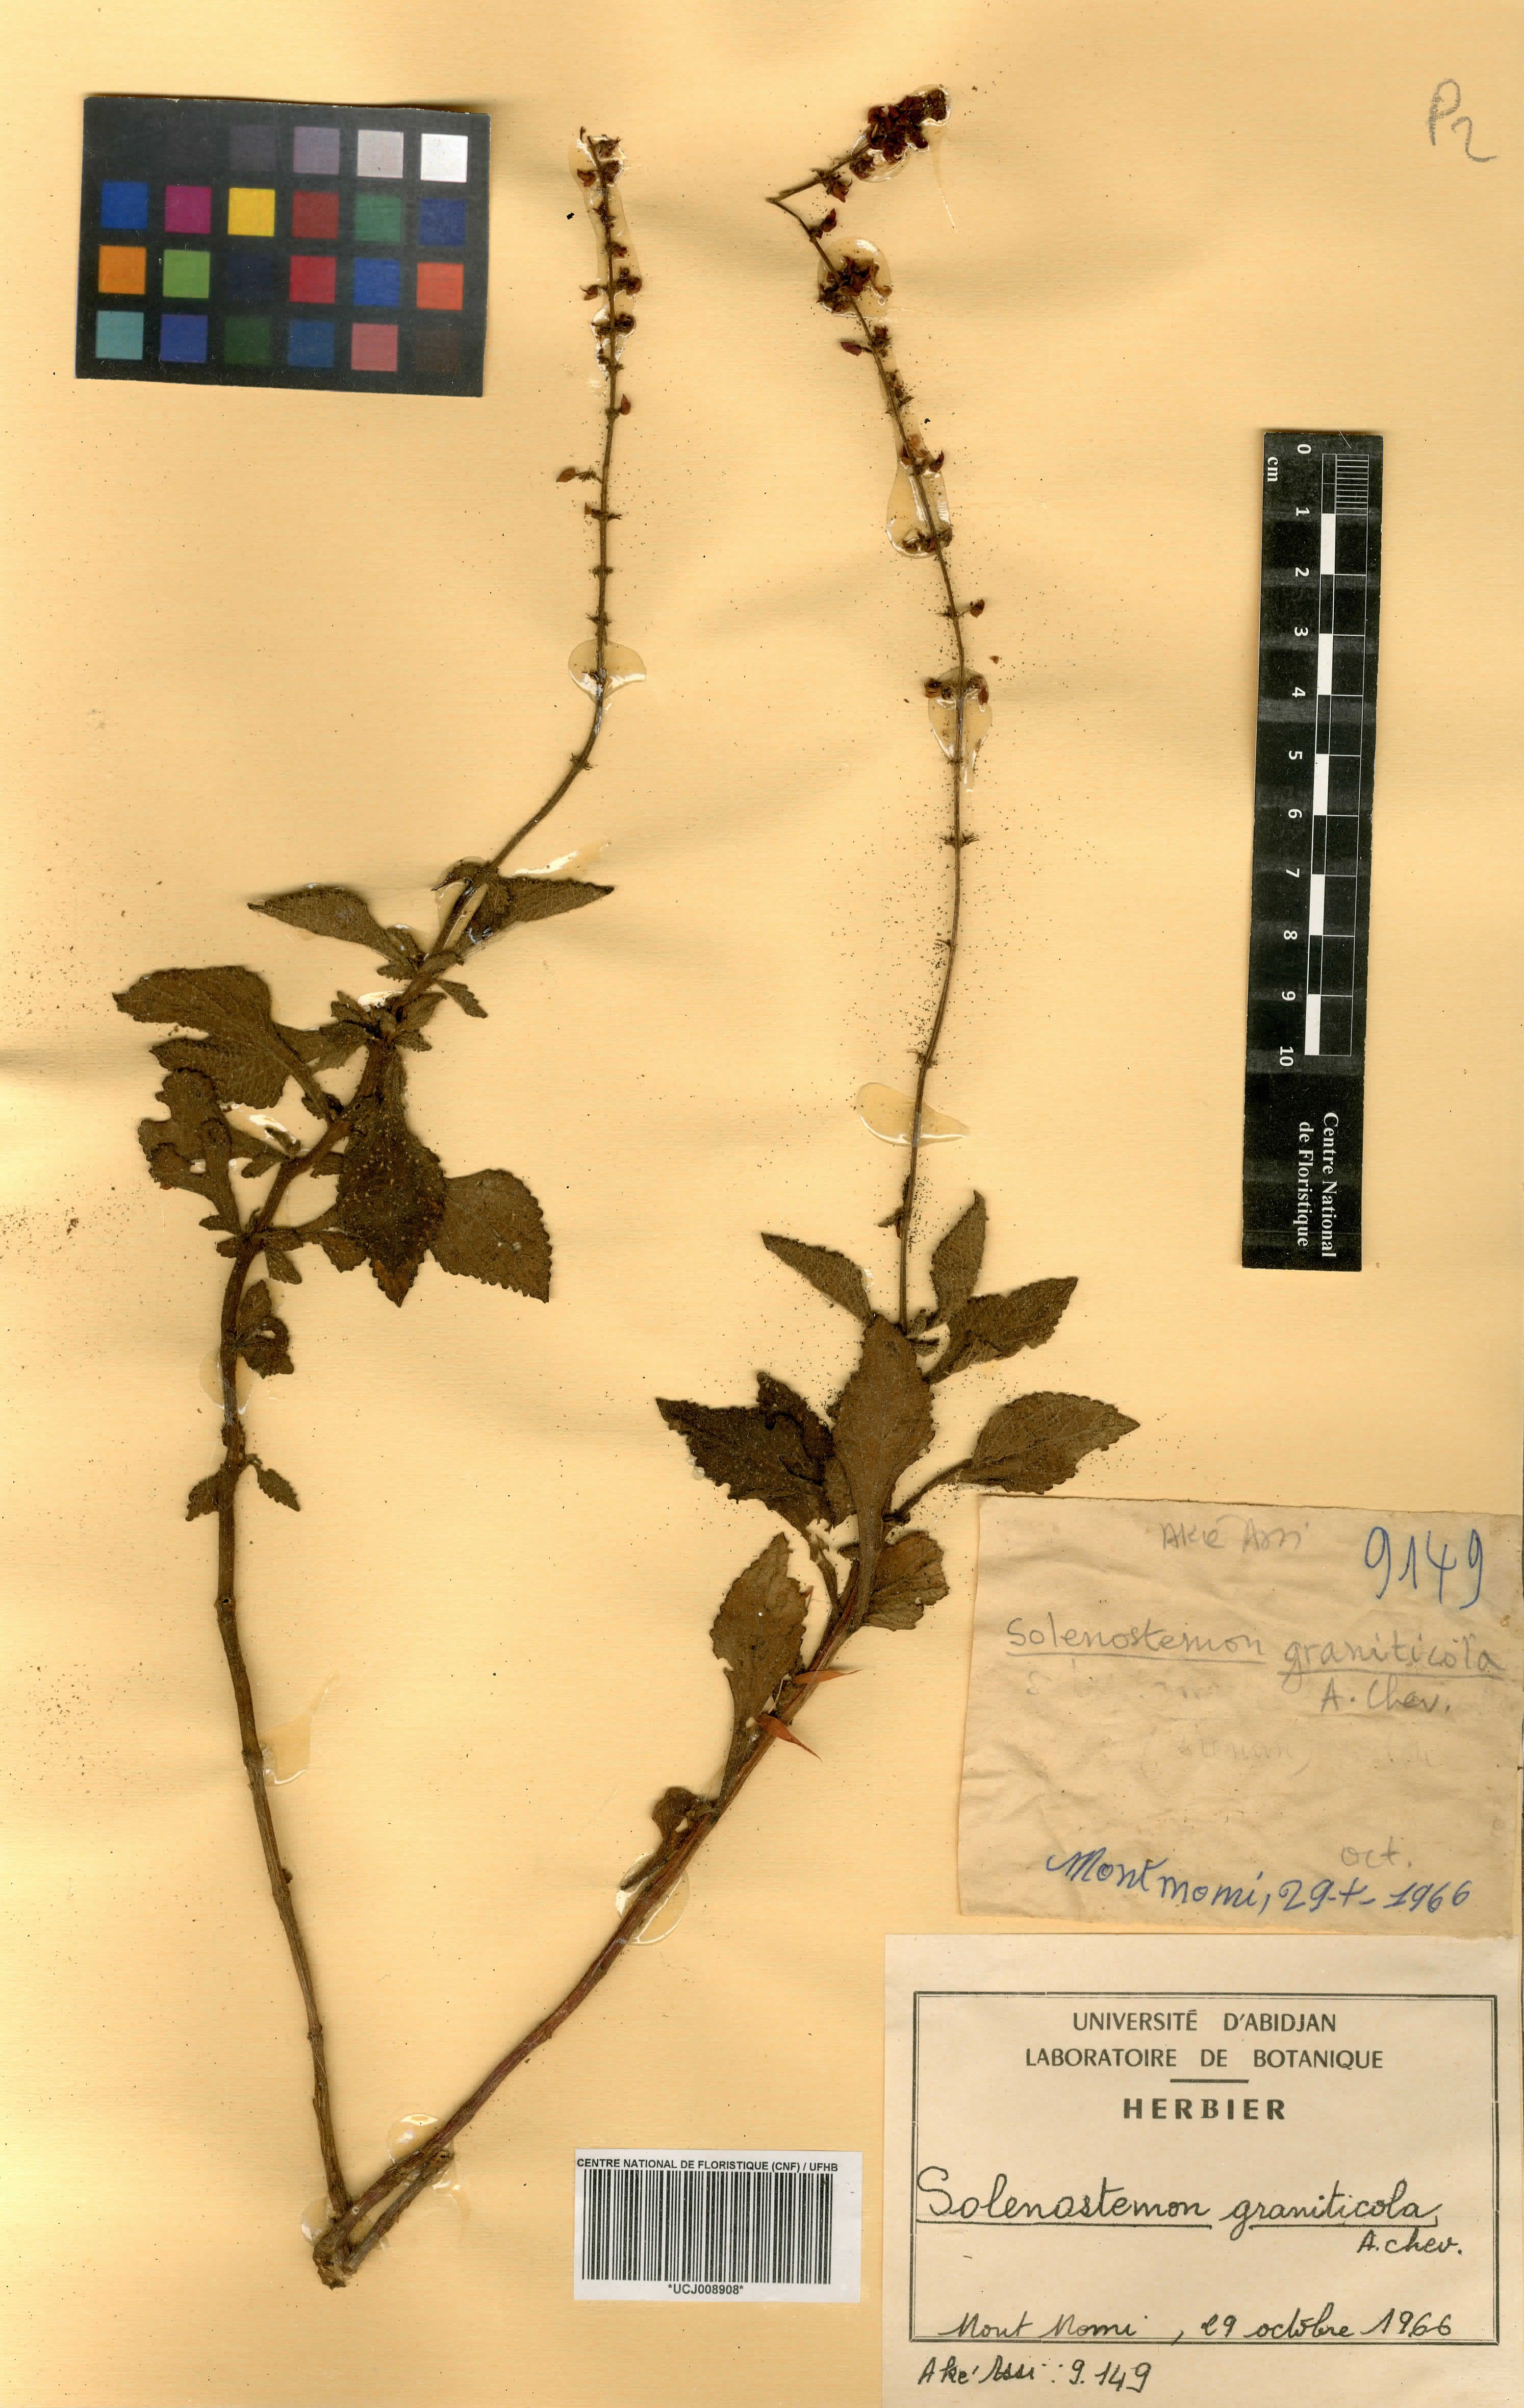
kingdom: Plantae
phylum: Tracheophyta
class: Magnoliopsida
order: Lamiales
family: Lamiaceae
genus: Coleus
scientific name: Coleus graniticola
